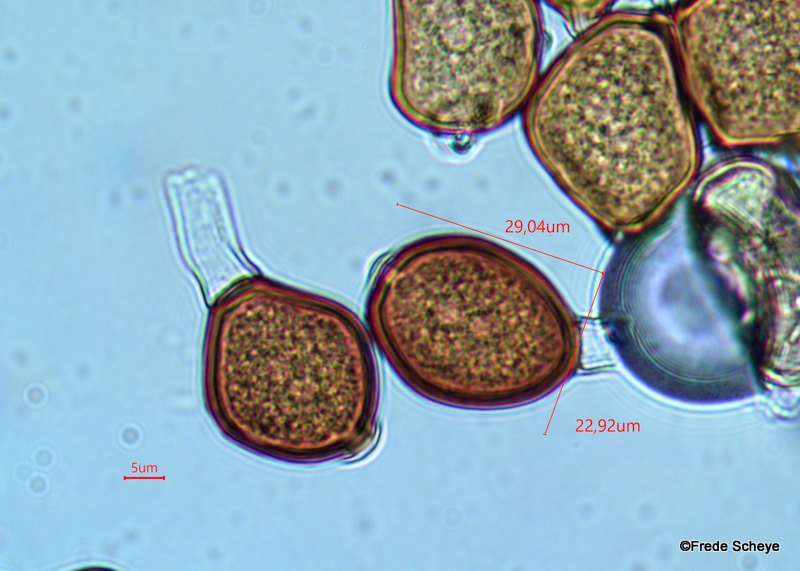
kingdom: Fungi
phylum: Basidiomycota
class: Pucciniomycetes
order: Pucciniales
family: Pucciniaceae
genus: Uromyces
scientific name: Uromyces ficariae
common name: vorterod-encellerust
